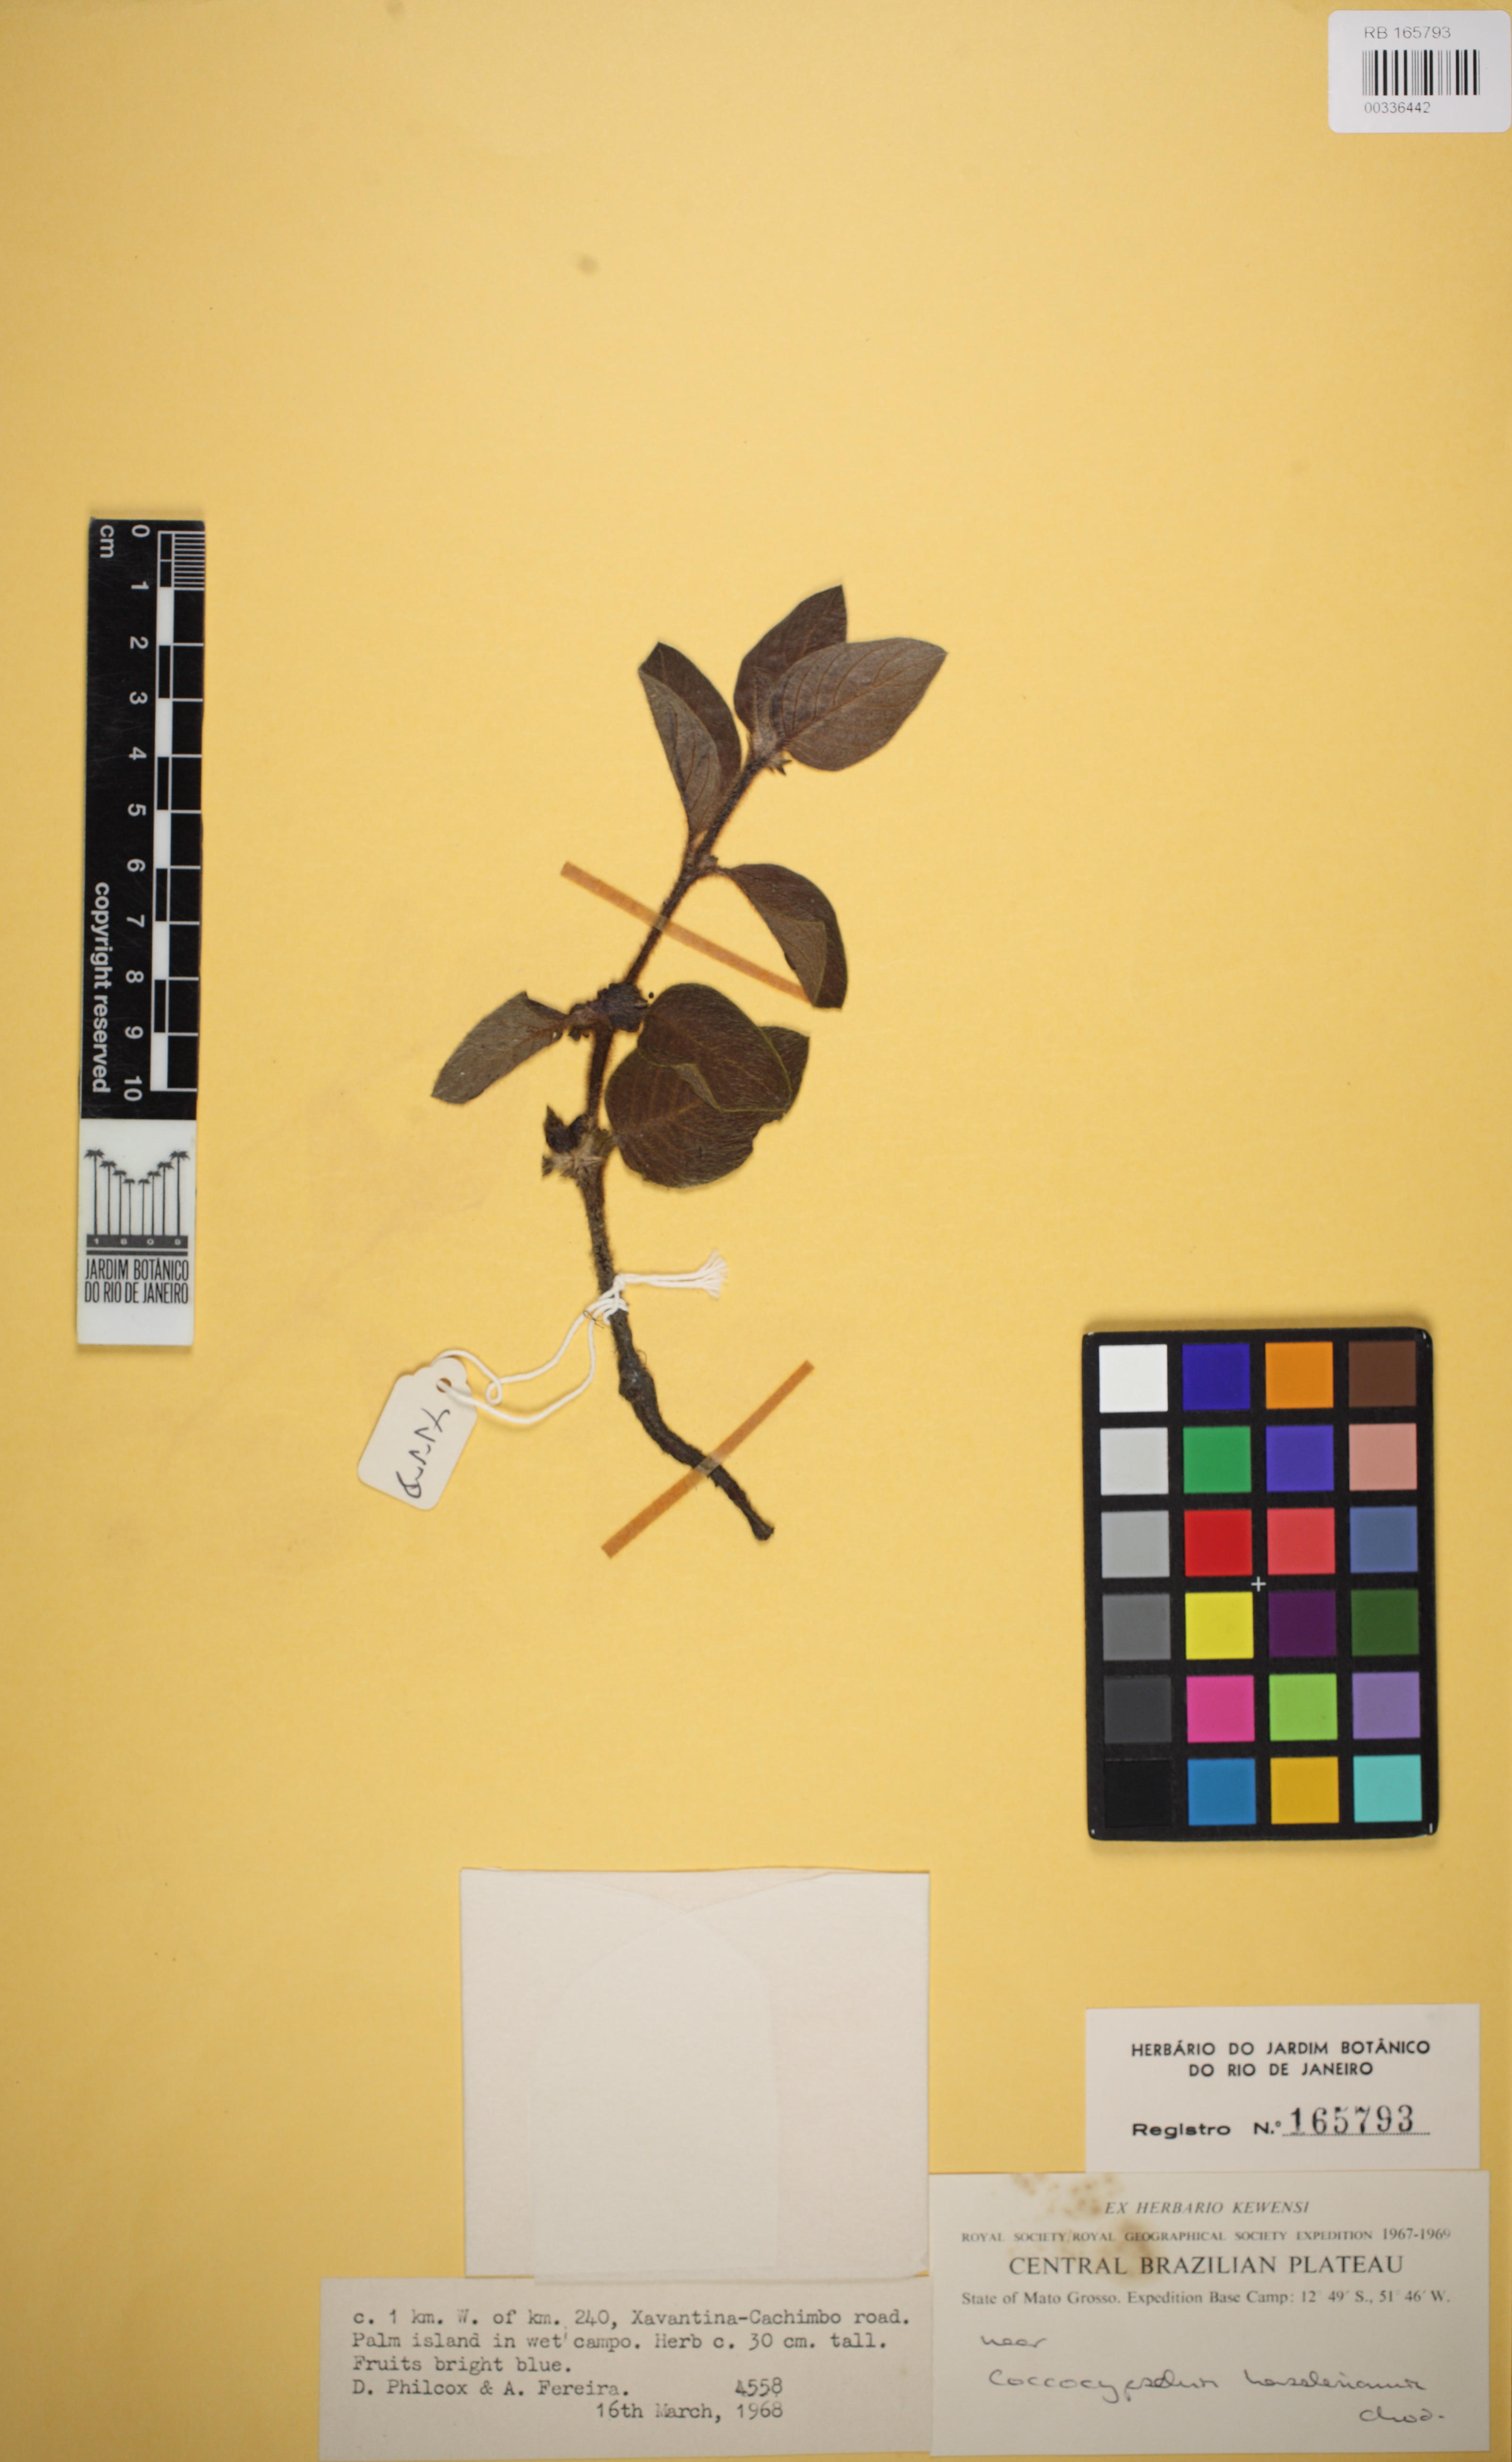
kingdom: Plantae
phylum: Tracheophyta
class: Magnoliopsida
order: Gentianales
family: Rubiaceae
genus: Coccocypselum
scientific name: Coccocypselum hasslerianum
